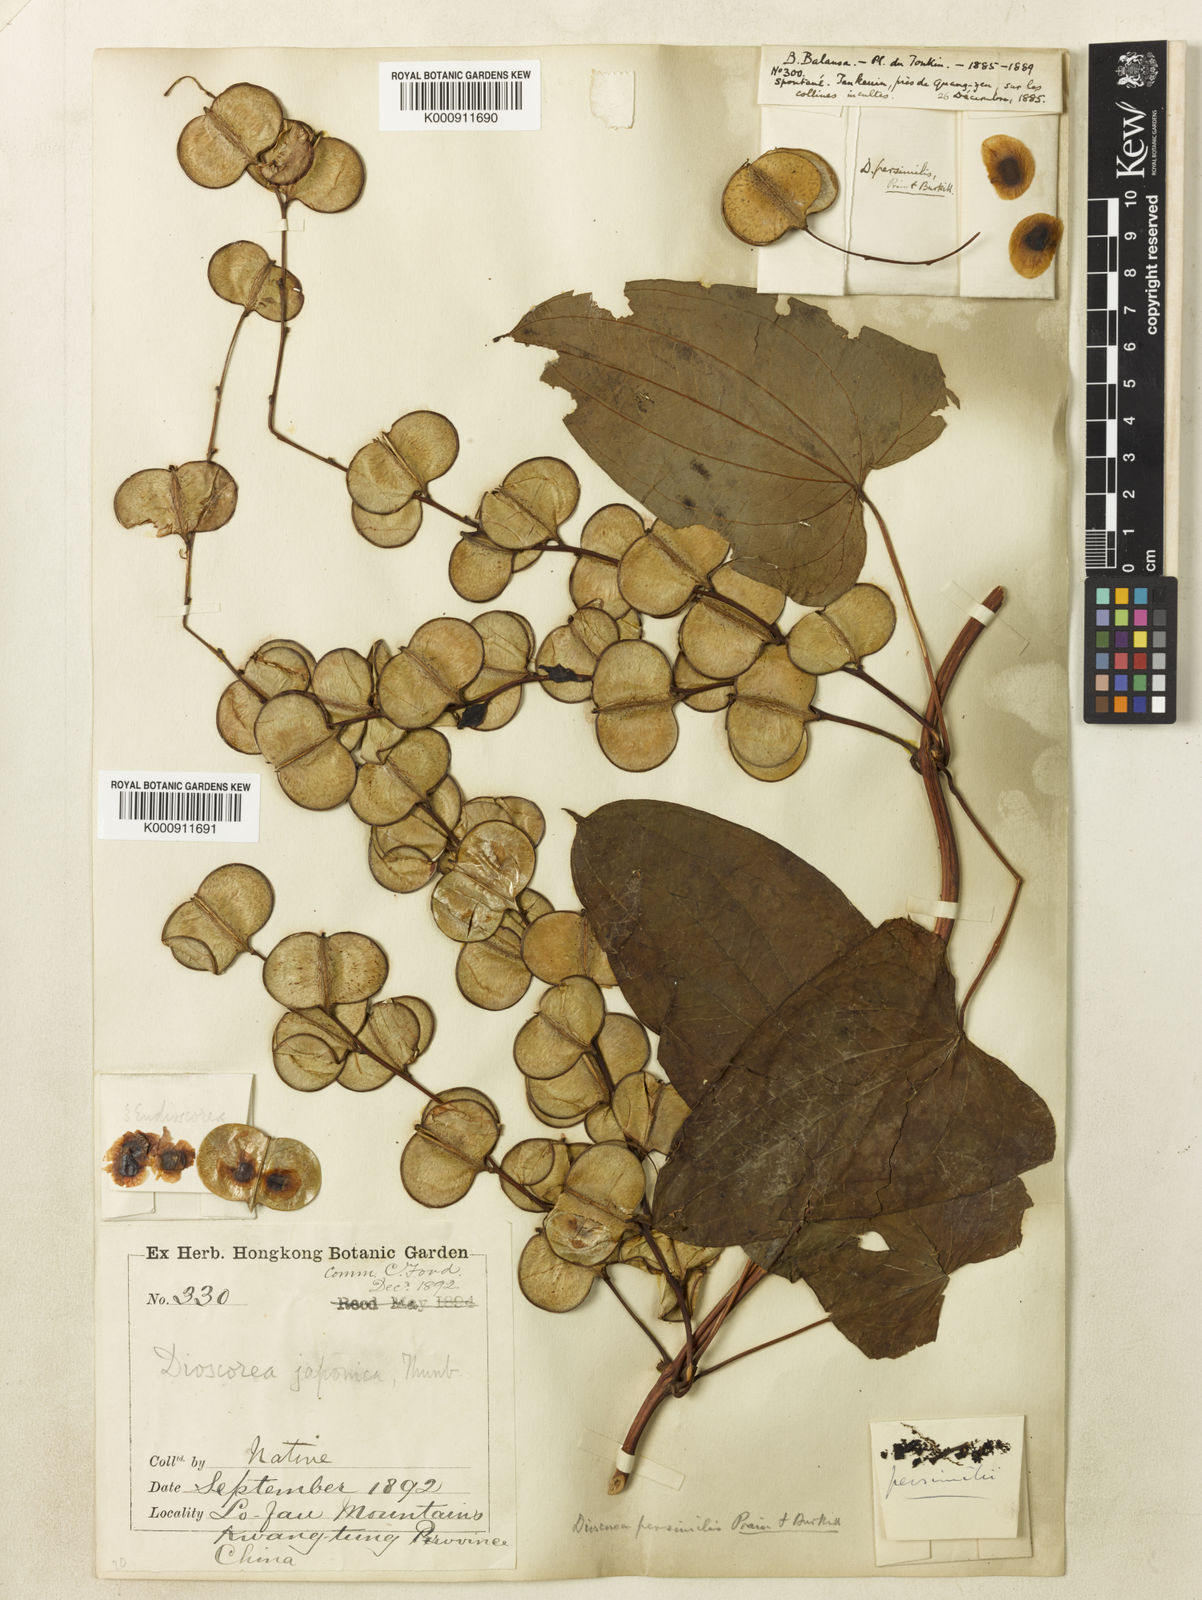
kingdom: Plantae
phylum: Tracheophyta
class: Liliopsida
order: Dioscoreales
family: Dioscoreaceae
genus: Dioscorea
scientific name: Dioscorea hamiltonii
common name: Mountain yam
